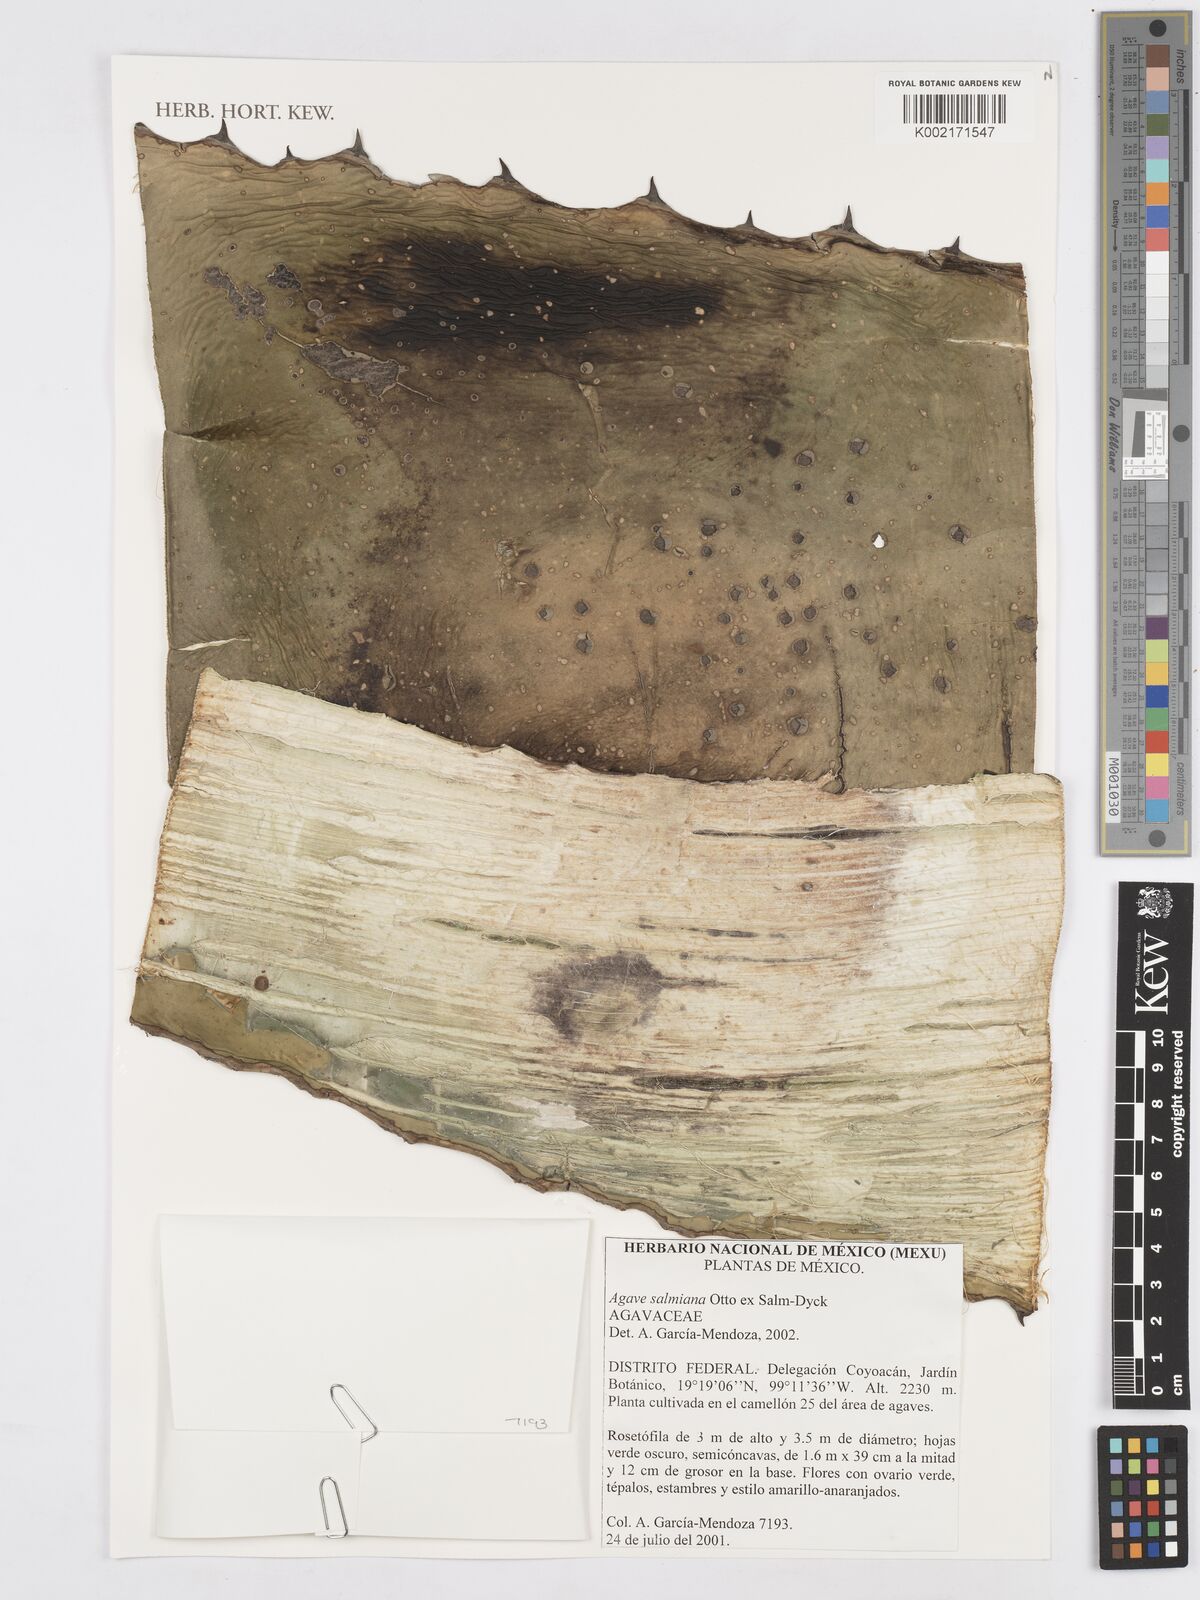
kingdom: Plantae
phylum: Tracheophyta
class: Liliopsida
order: Asparagales
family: Asparagaceae
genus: Agave
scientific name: Agave salmiana
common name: Pulque agave
